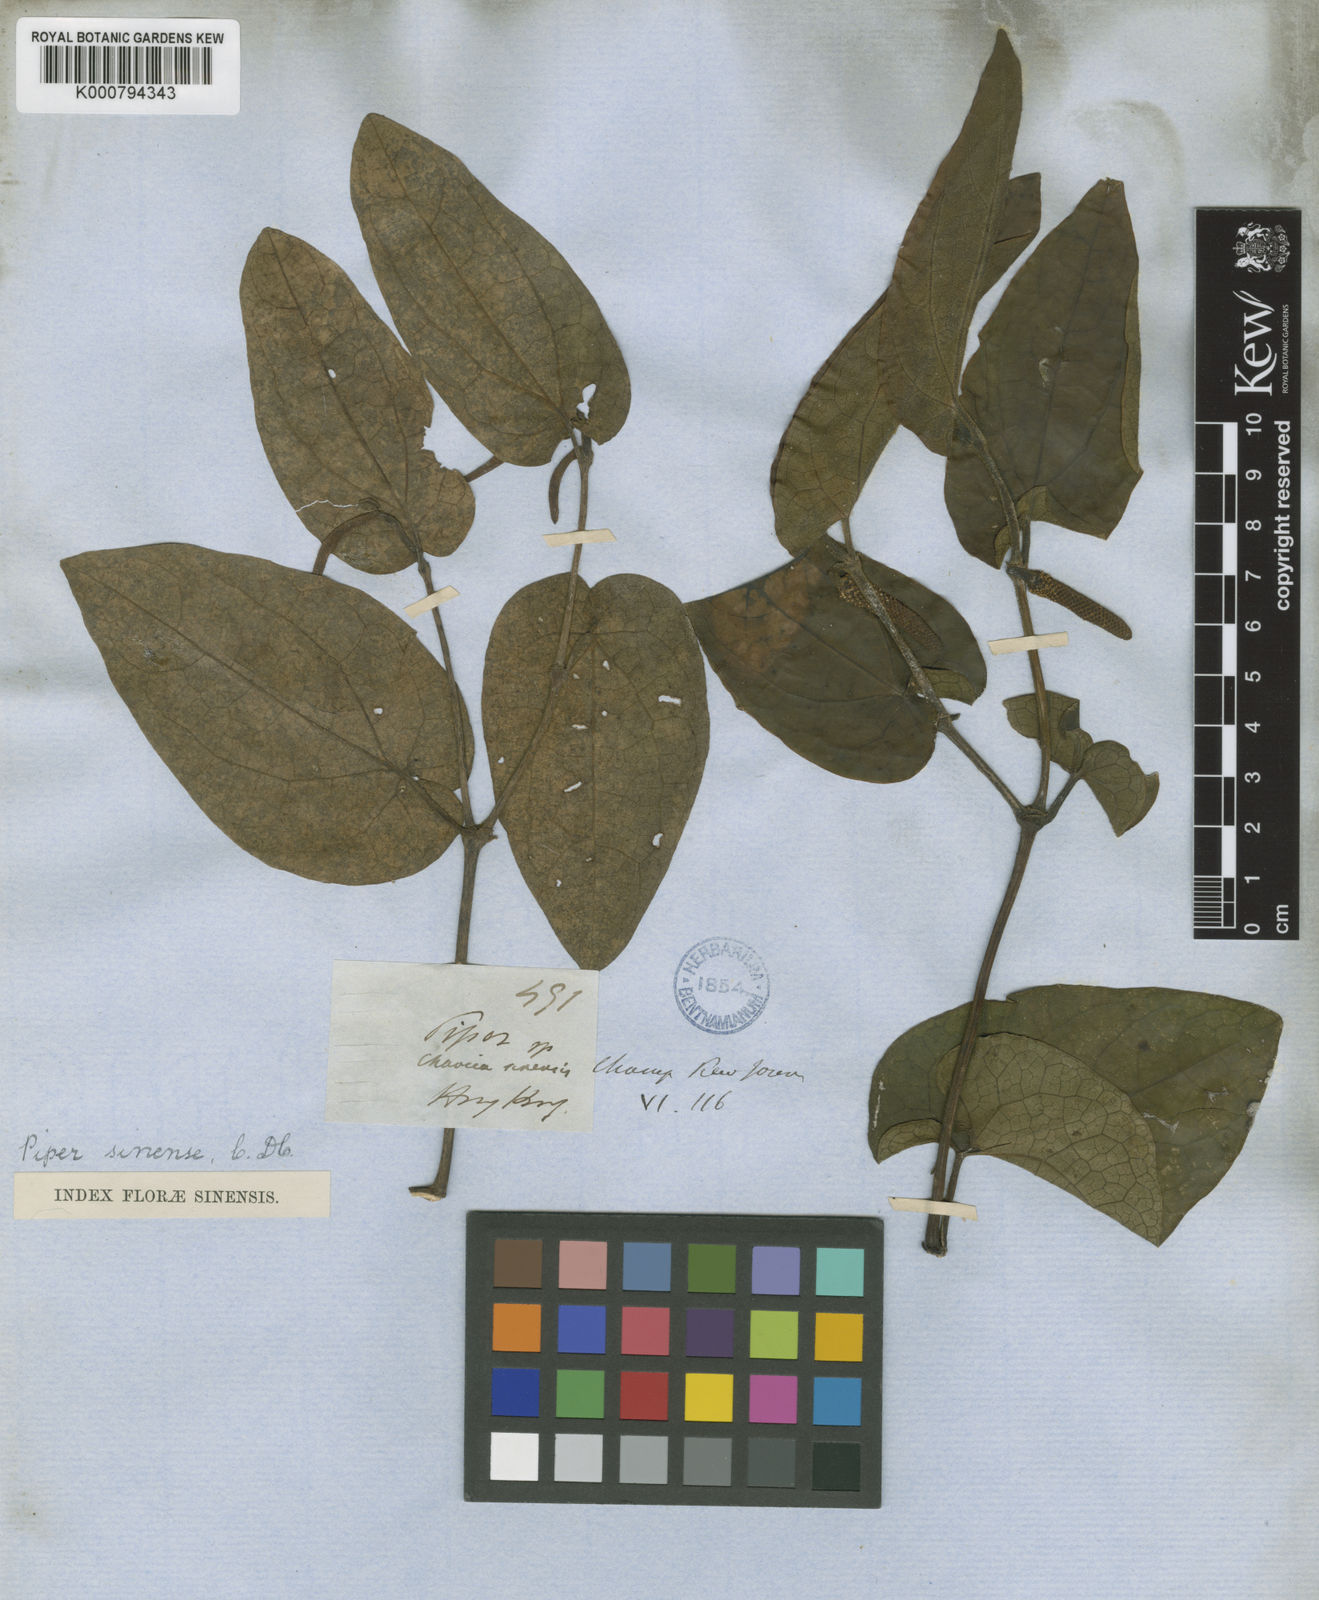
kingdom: Plantae
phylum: Tracheophyta
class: Magnoliopsida
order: Piperales
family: Piperaceae
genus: Piper
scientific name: Piper
